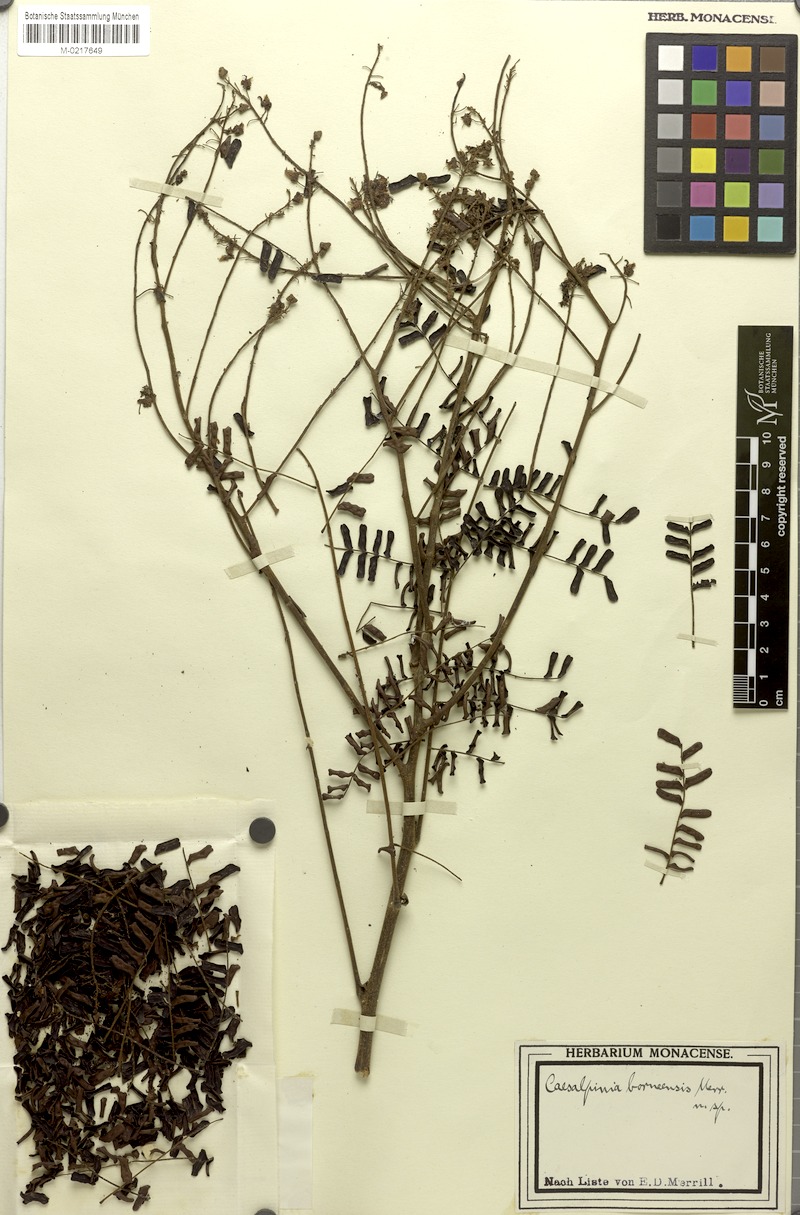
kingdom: Plantae
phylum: Tracheophyta
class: Magnoliopsida
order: Fabales
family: Fabaceae
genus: Biancaea
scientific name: Biancaea parviflora
